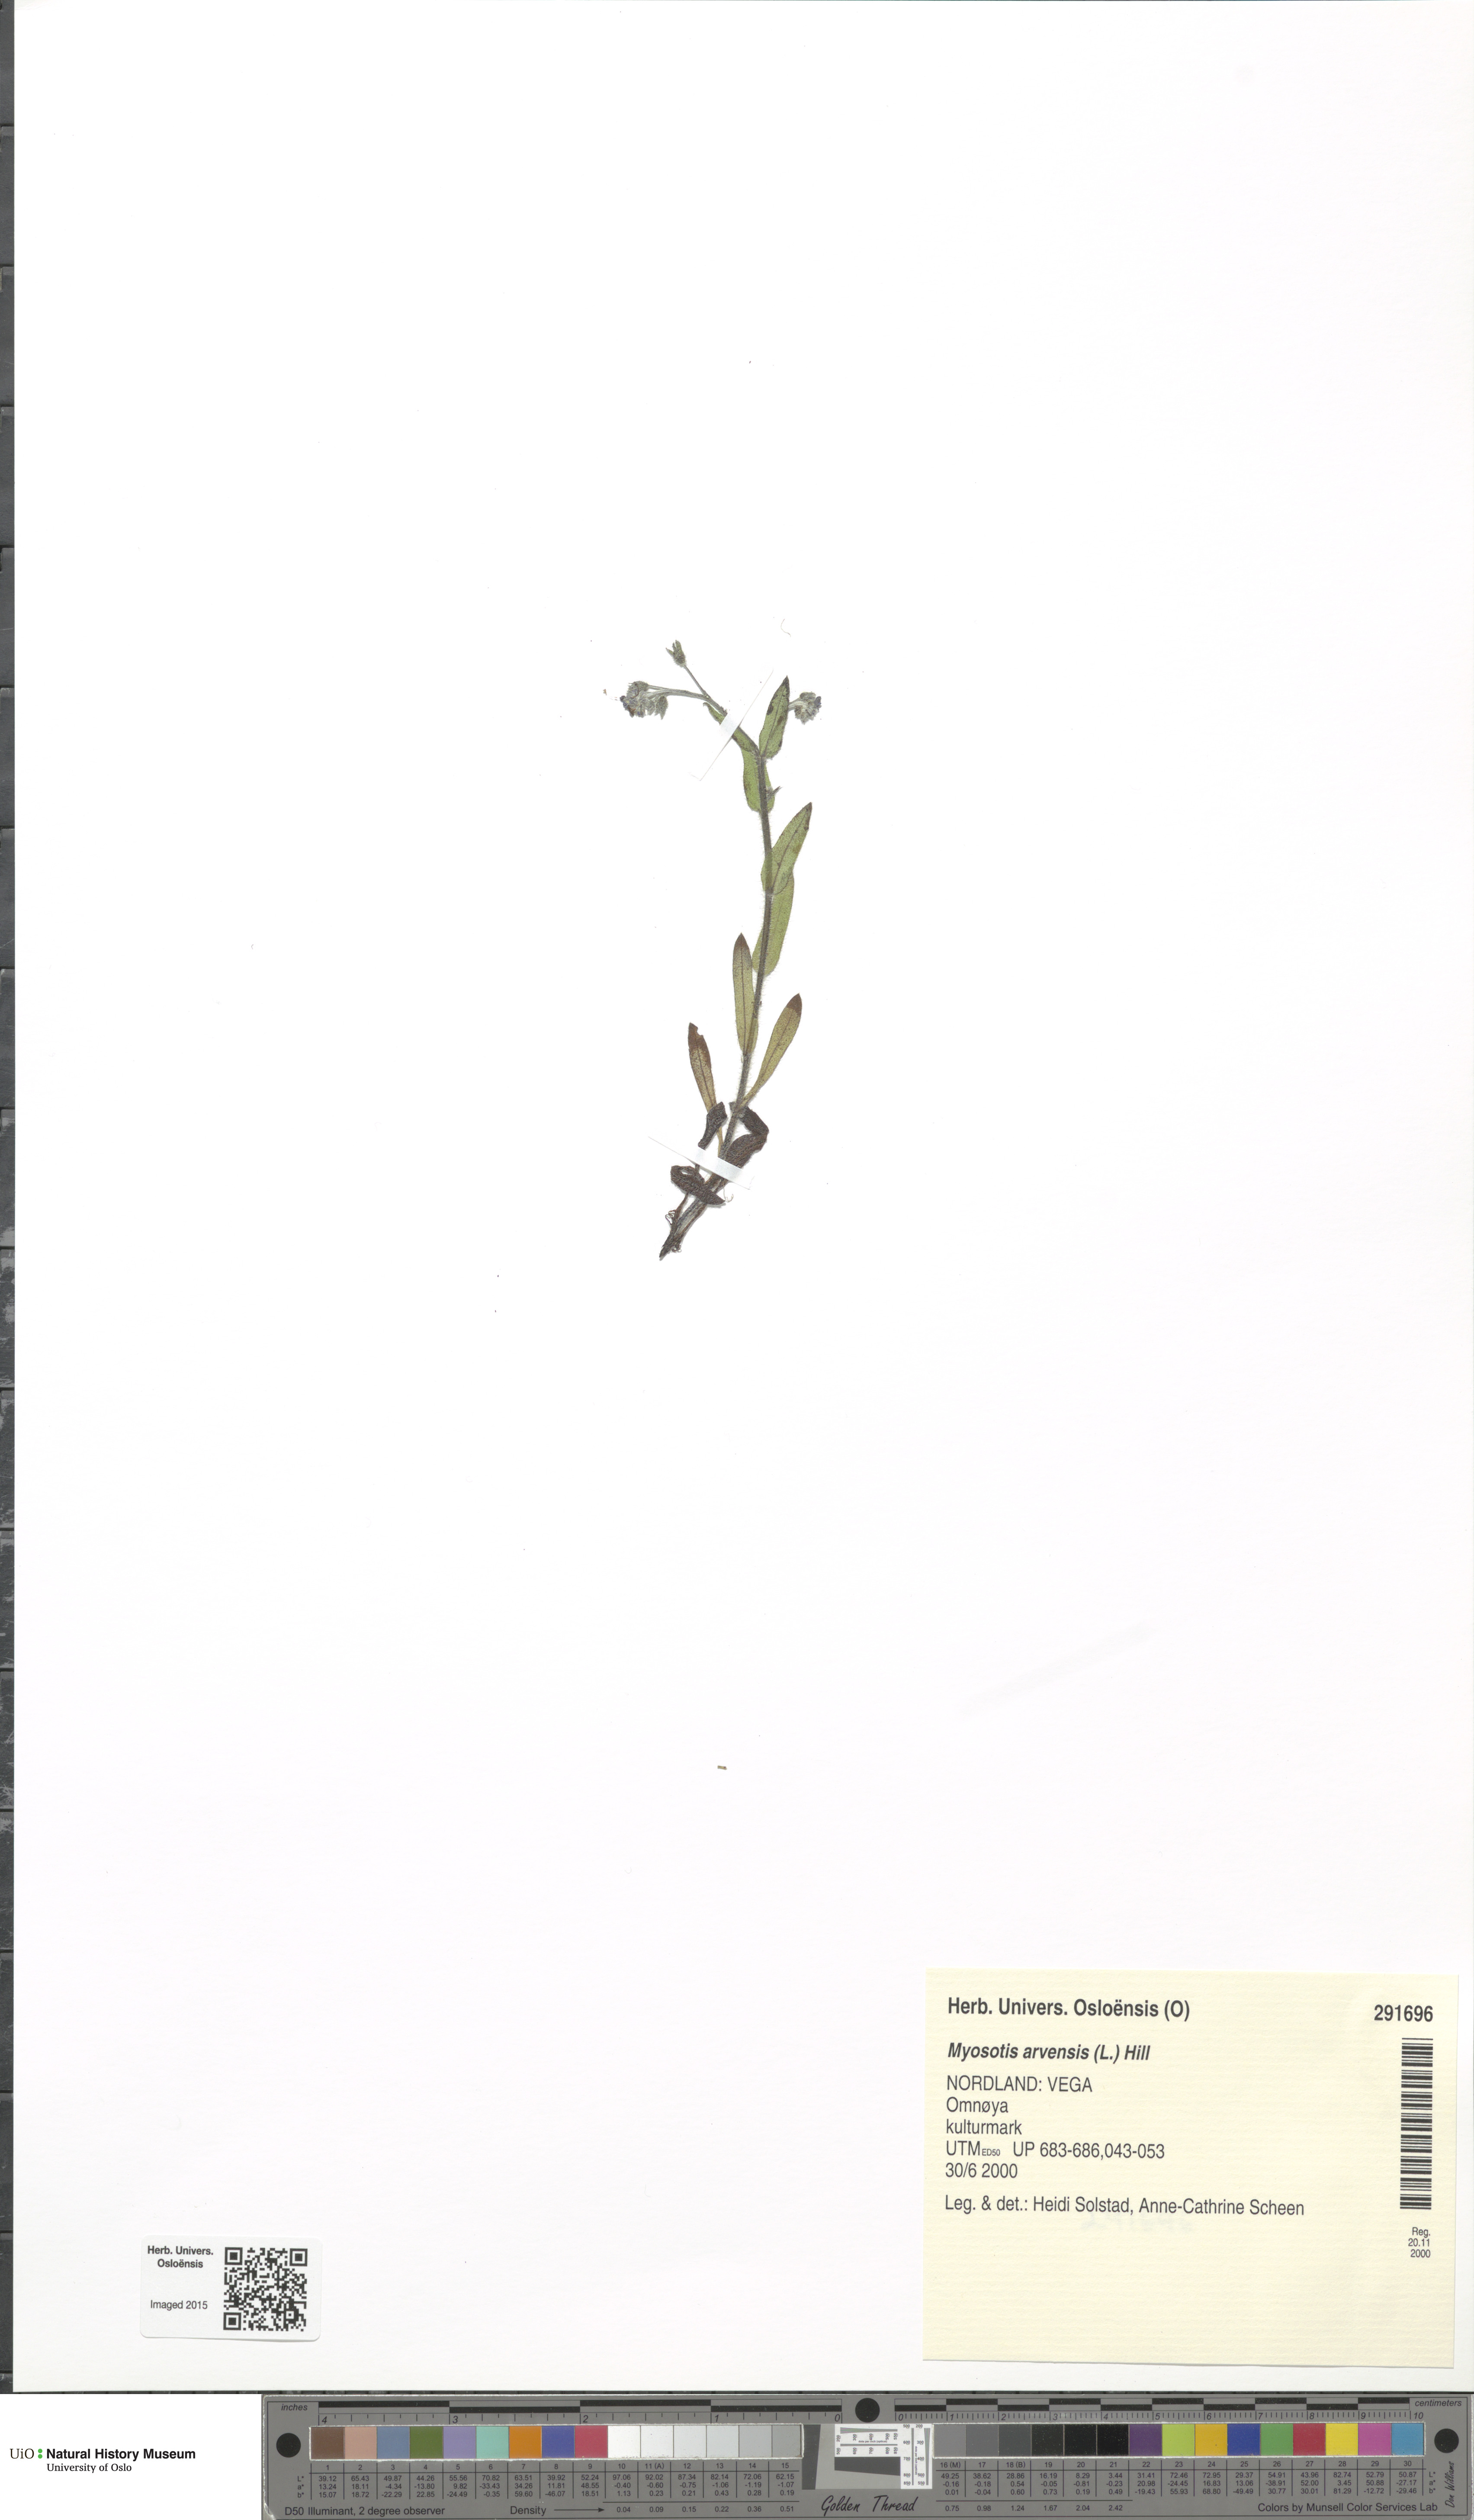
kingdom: Plantae
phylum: Tracheophyta
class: Magnoliopsida
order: Boraginales
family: Boraginaceae
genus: Myosotis
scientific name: Myosotis arvensis
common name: Field forget-me-not
